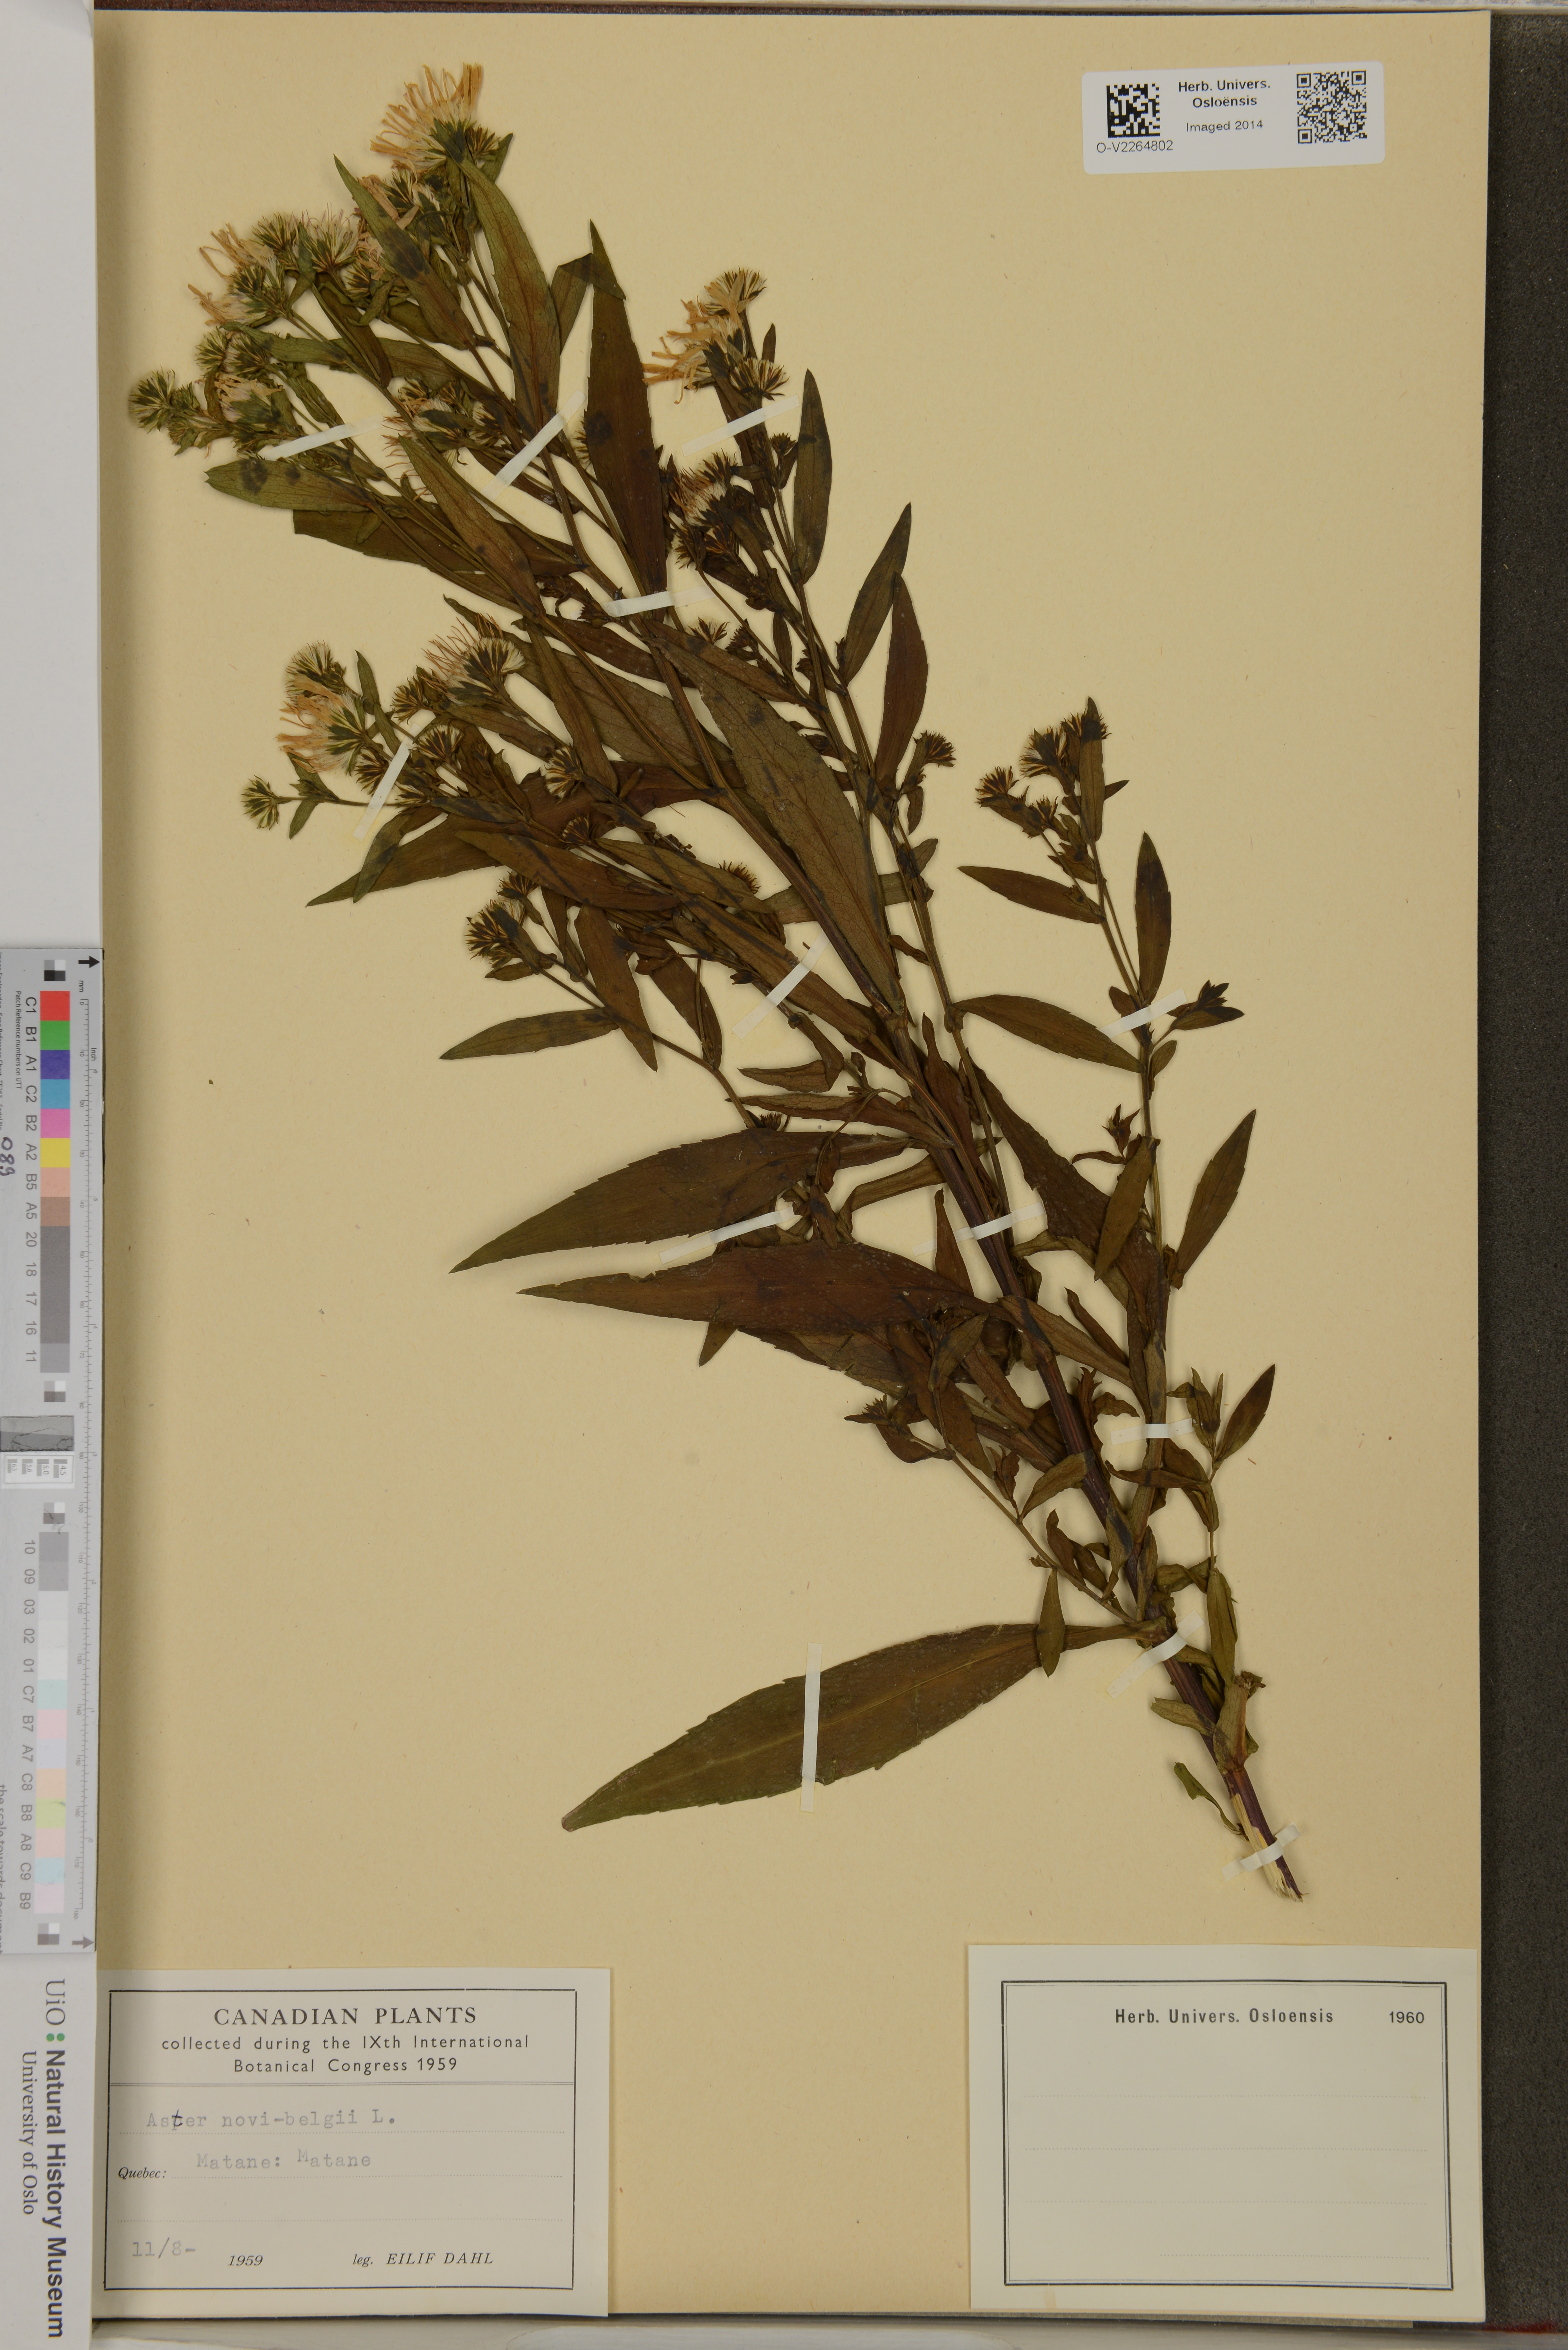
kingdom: Plantae
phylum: Tracheophyta
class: Magnoliopsida
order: Asterales
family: Asteraceae
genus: Symphyotrichum
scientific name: Symphyotrichum novi-belgii
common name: Michaelmas daisy
